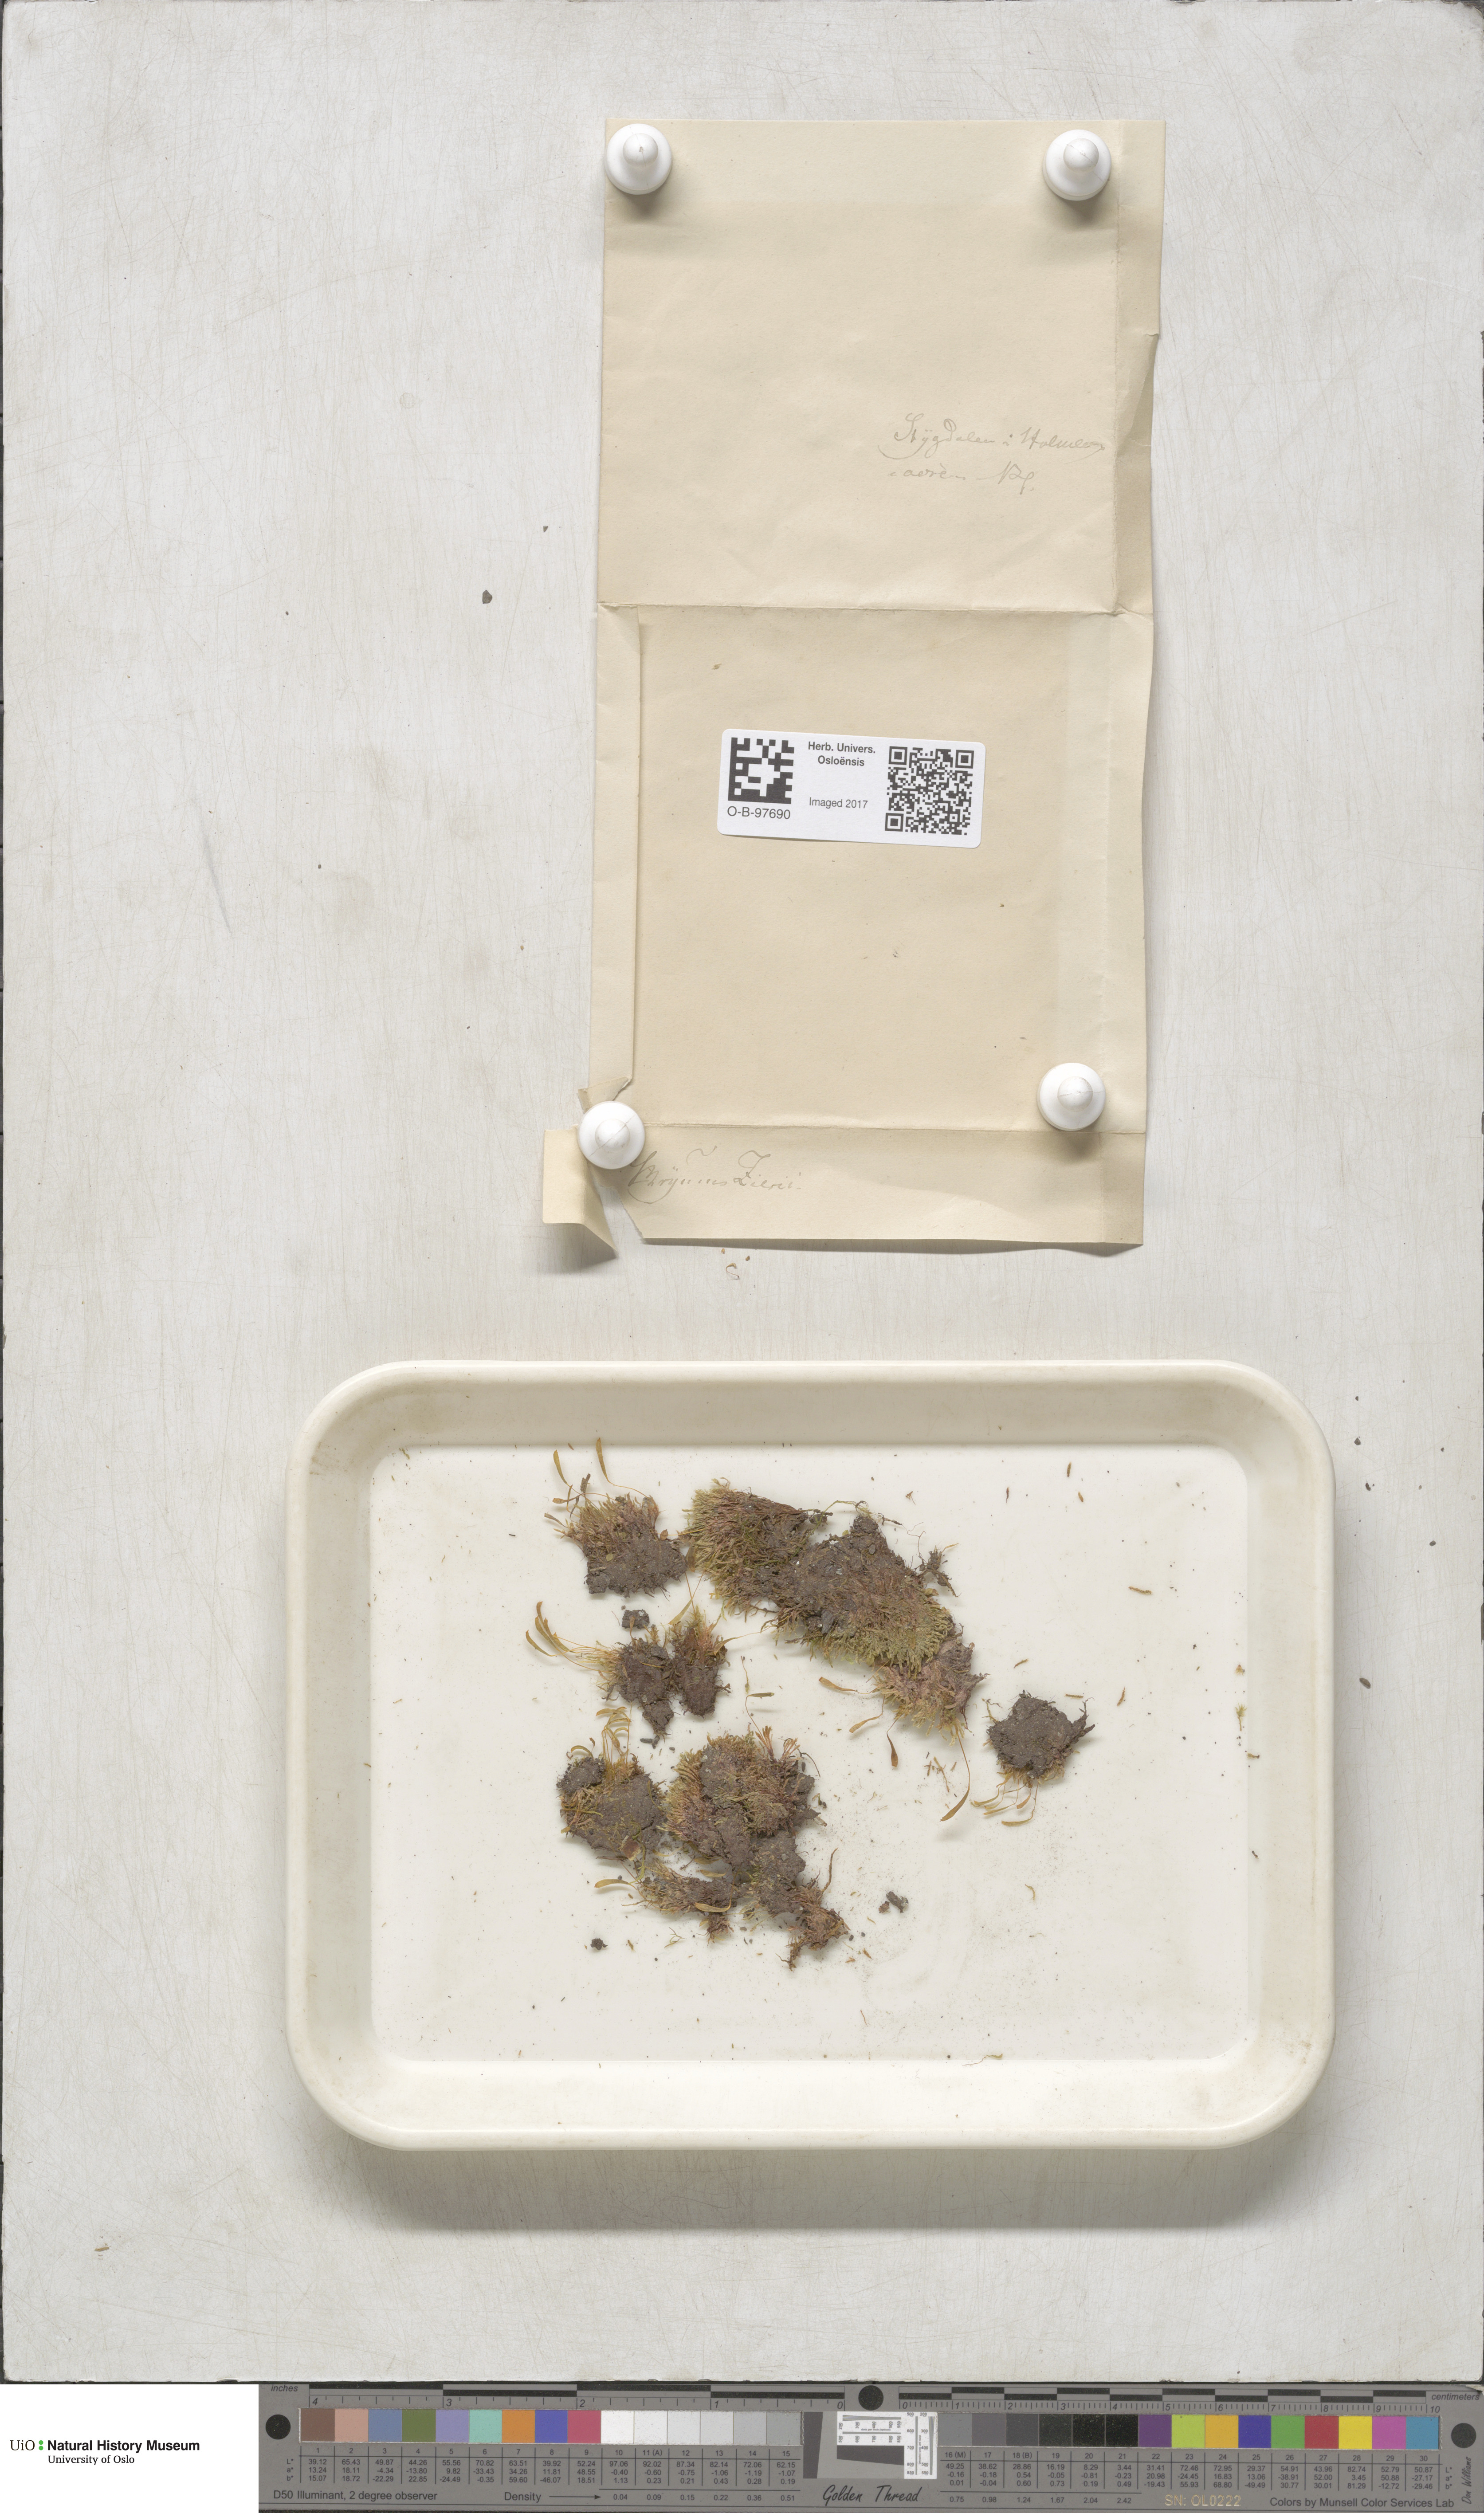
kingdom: Plantae
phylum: Bryophyta
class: Bryopsida
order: Bryales
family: Bryaceae
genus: Plagiobryum
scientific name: Plagiobryum zieri
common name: Zier's hump moss
